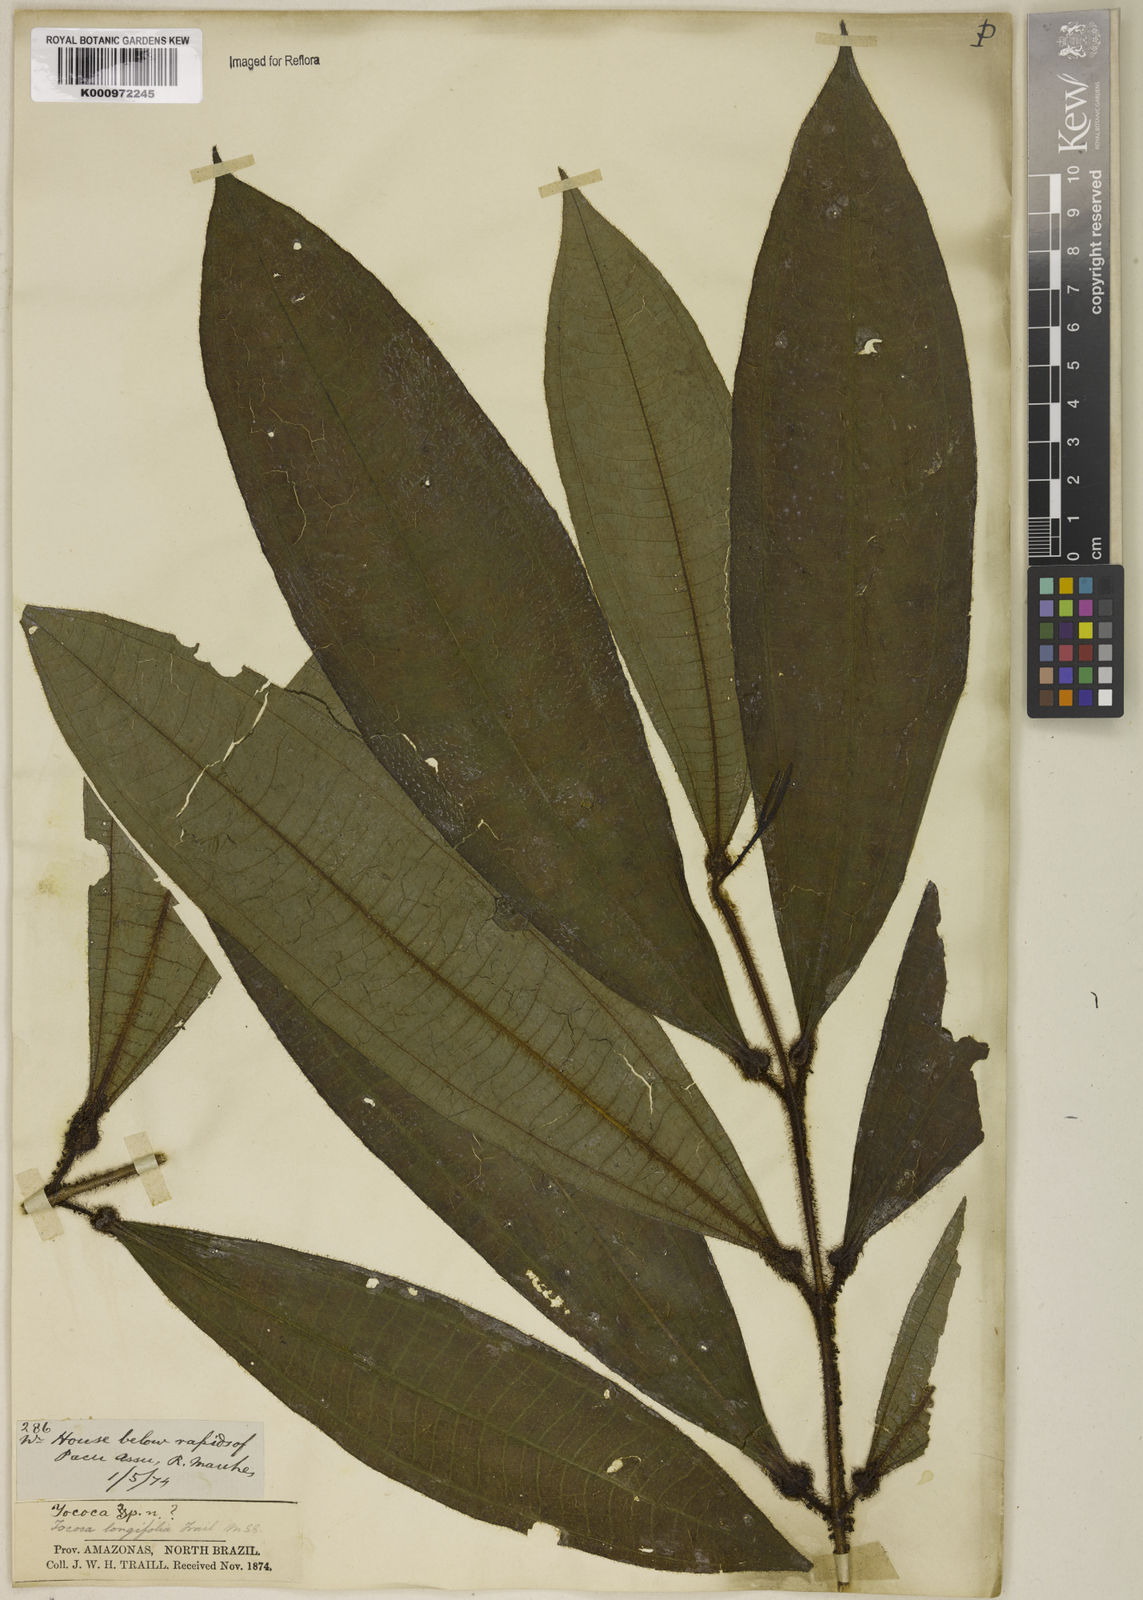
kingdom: Plantae
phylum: Tracheophyta
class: Magnoliopsida
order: Myrtales
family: Melastomataceae
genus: Miconia
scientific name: Miconia
